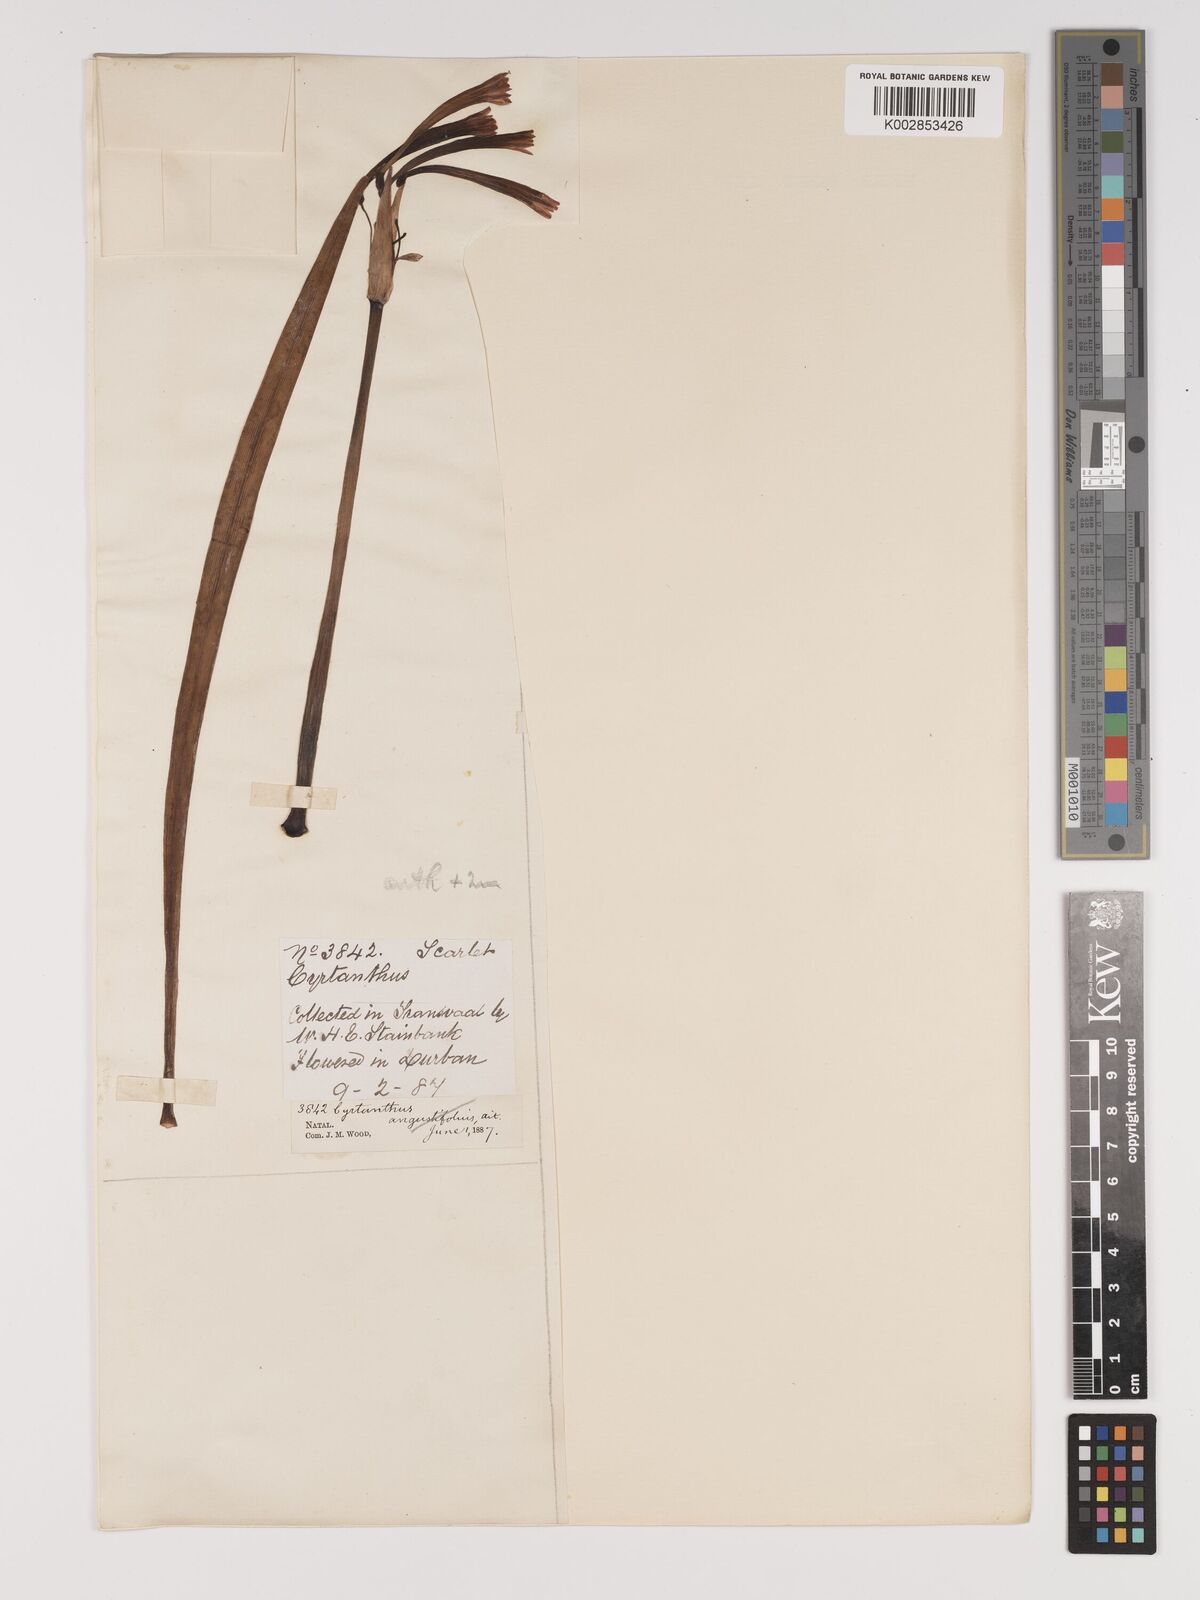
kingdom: Plantae
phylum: Tracheophyta
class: Liliopsida
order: Asparagales
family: Amaryllidaceae
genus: Cyrtanthus
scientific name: Cyrtanthus contractus
